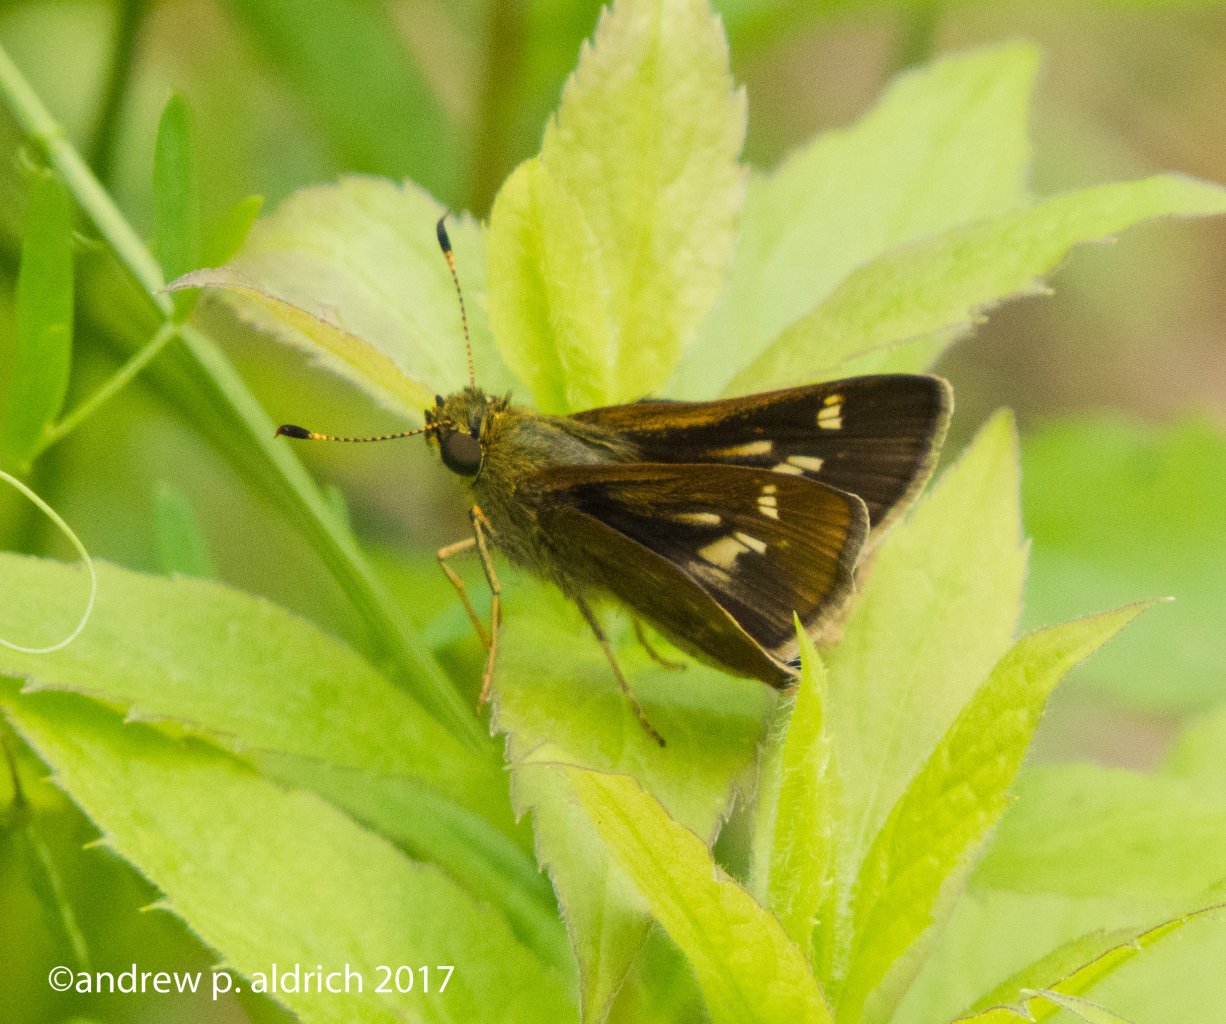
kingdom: Animalia
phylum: Arthropoda
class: Insecta
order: Lepidoptera
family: Hesperiidae
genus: Vernia
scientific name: Vernia verna
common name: Little Glassywing
